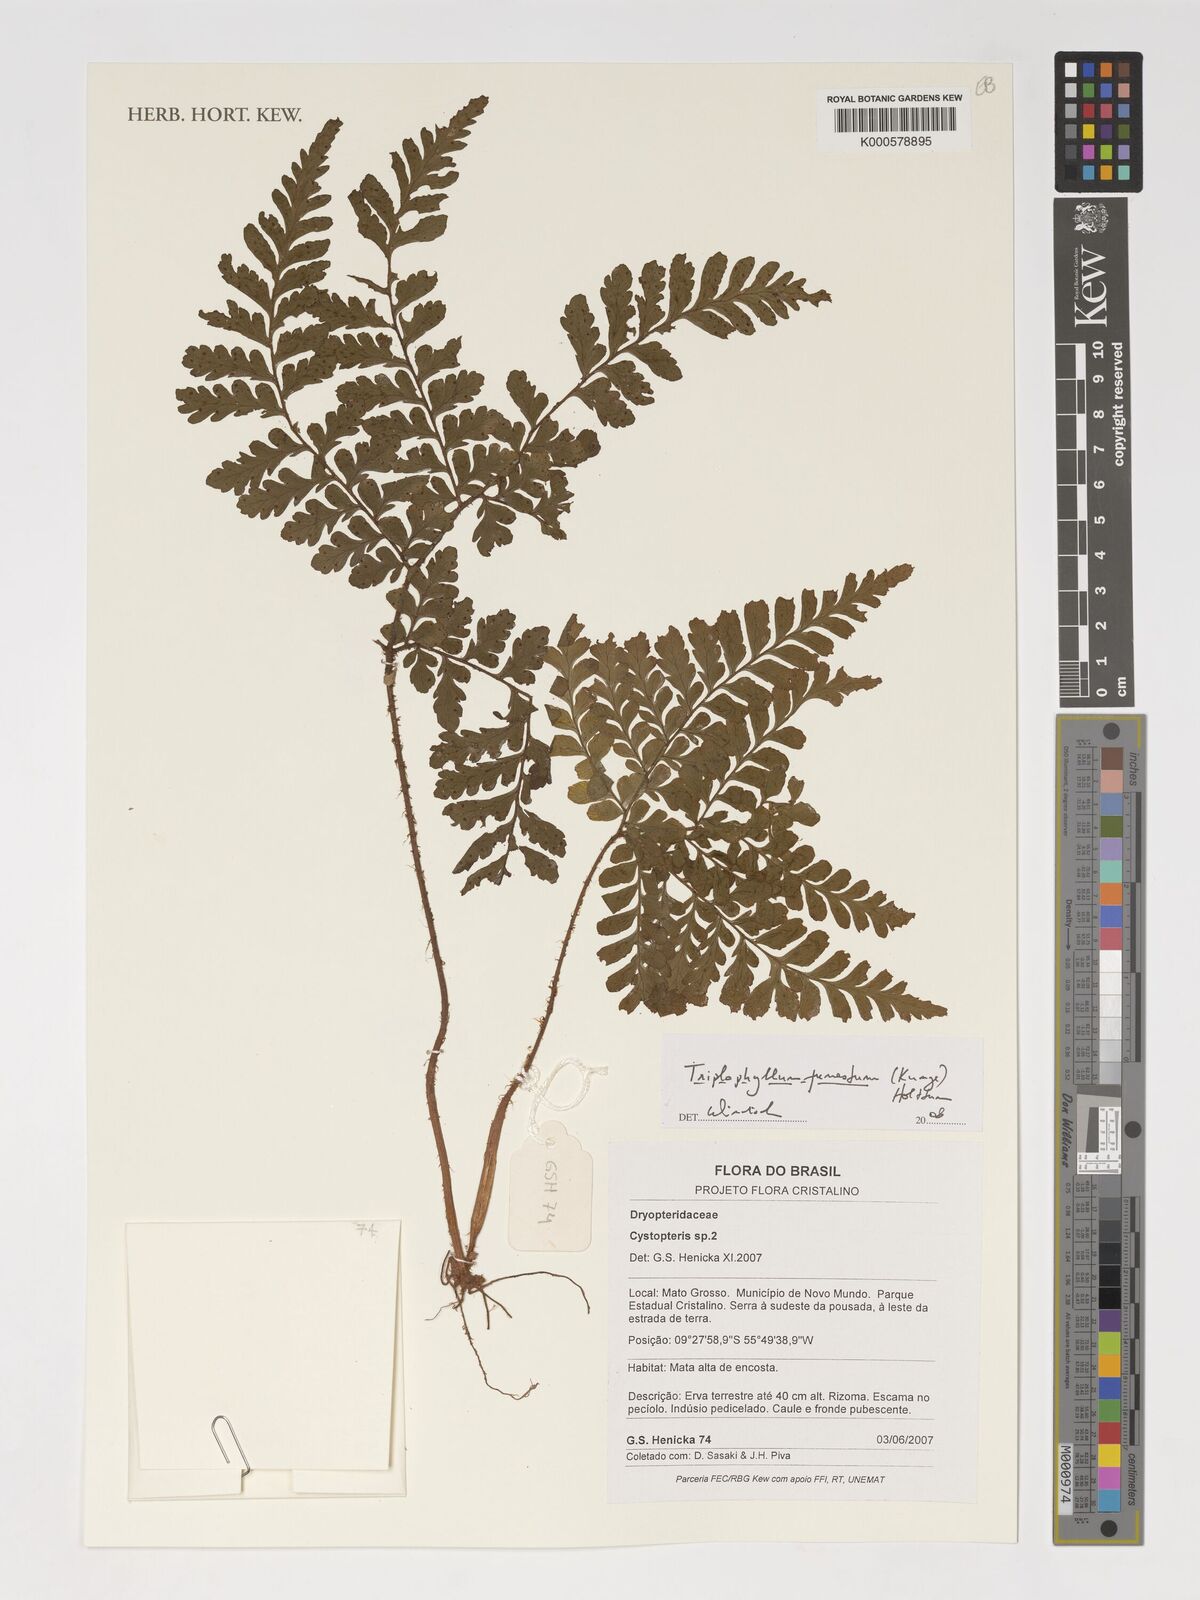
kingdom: Plantae
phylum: Tracheophyta
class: Polypodiopsida
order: Polypodiales
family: Tectariaceae
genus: Triplophyllum
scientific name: Triplophyllum funestum
